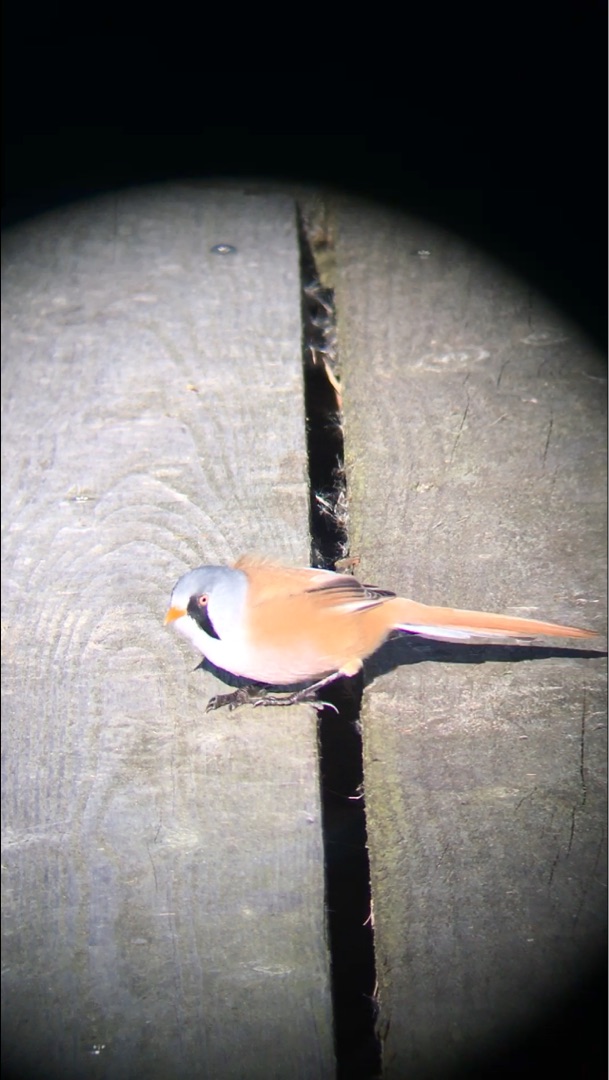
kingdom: Animalia
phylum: Chordata
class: Aves
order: Passeriformes
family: Panuridae
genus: Panurus
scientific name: Panurus biarmicus
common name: Skægmejse
